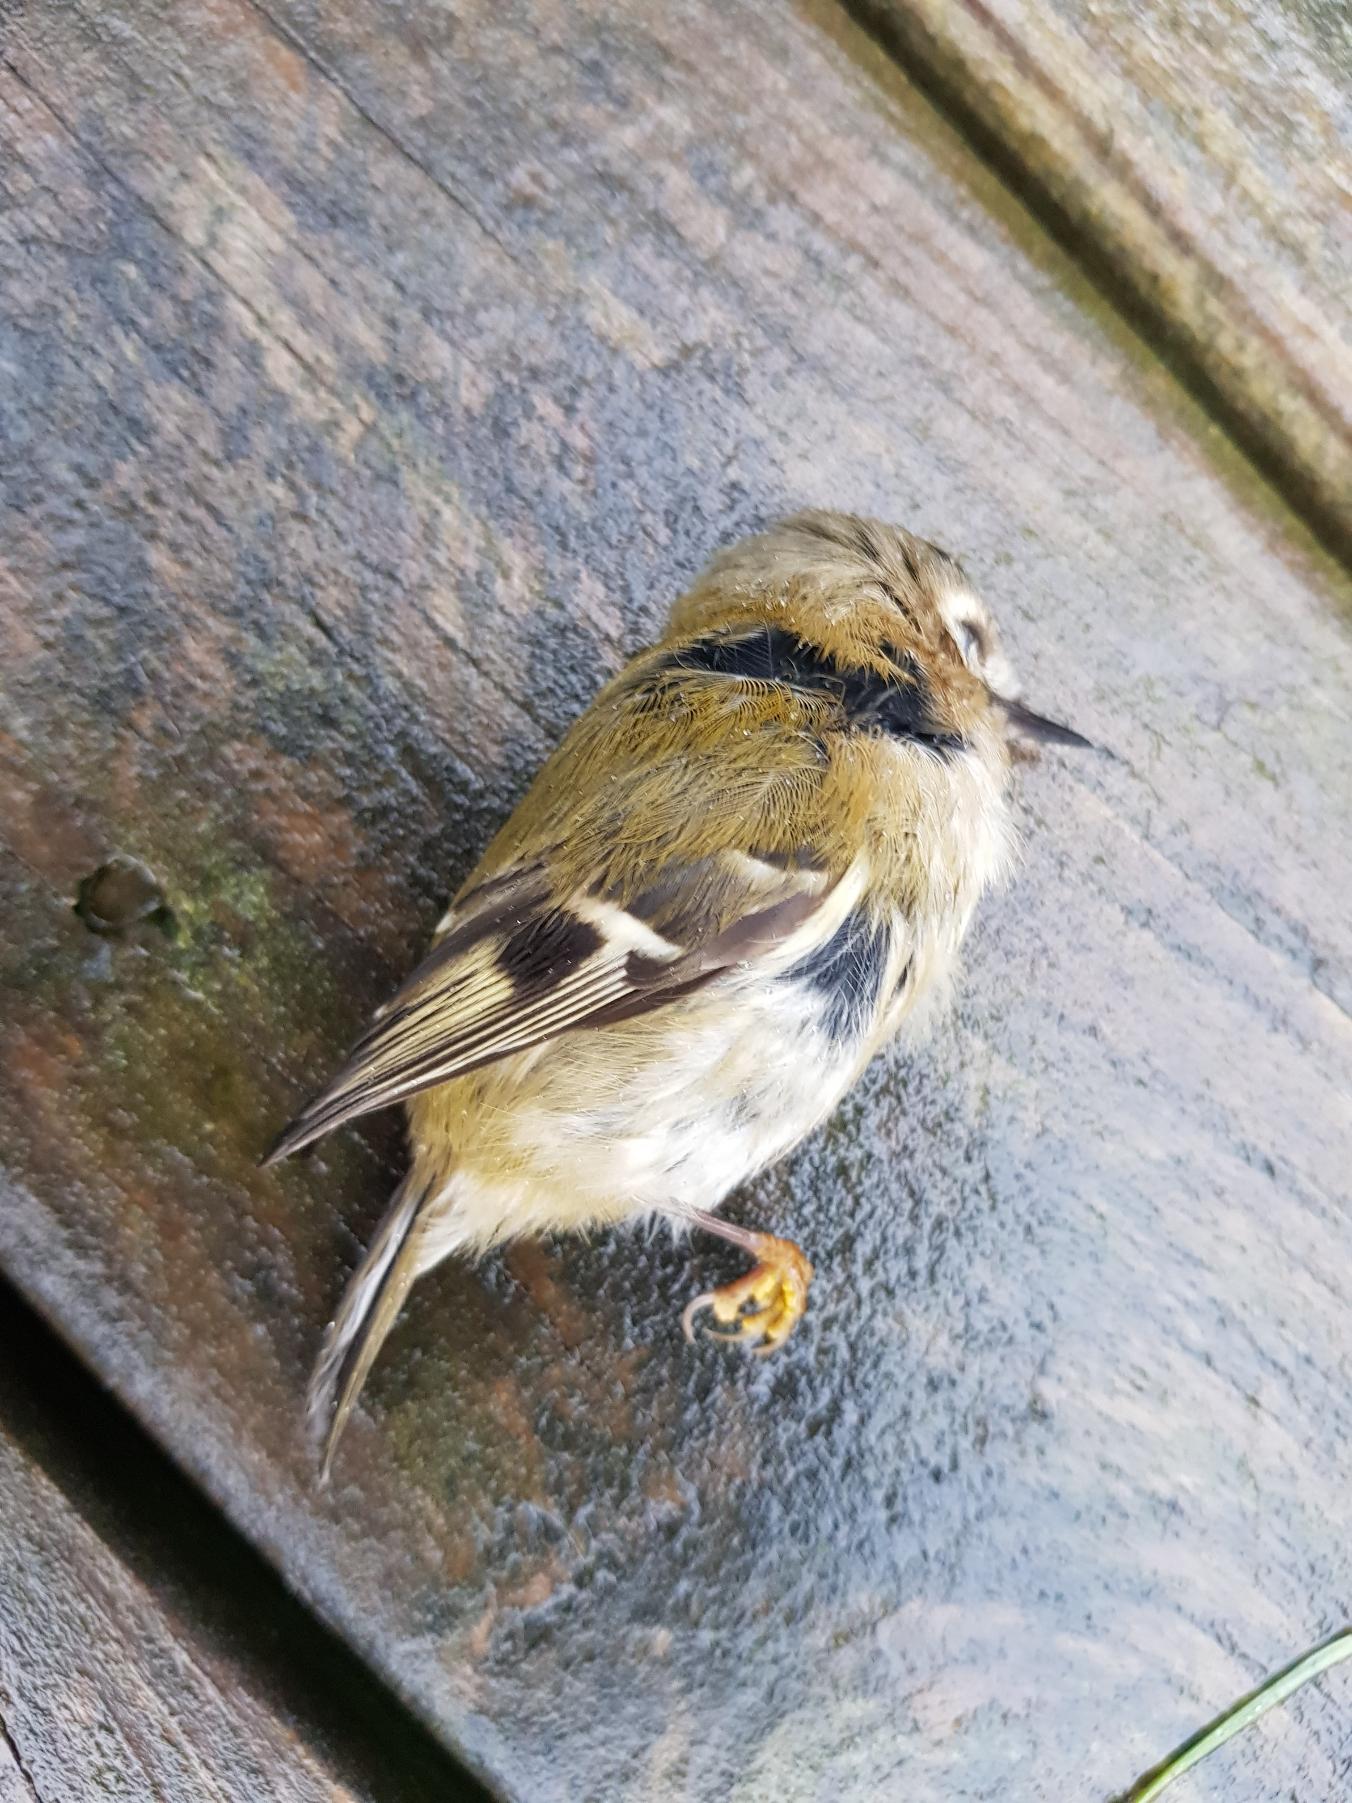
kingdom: Animalia
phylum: Chordata
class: Aves
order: Passeriformes
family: Regulidae
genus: Regulus
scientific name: Regulus regulus
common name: Fuglekonge
